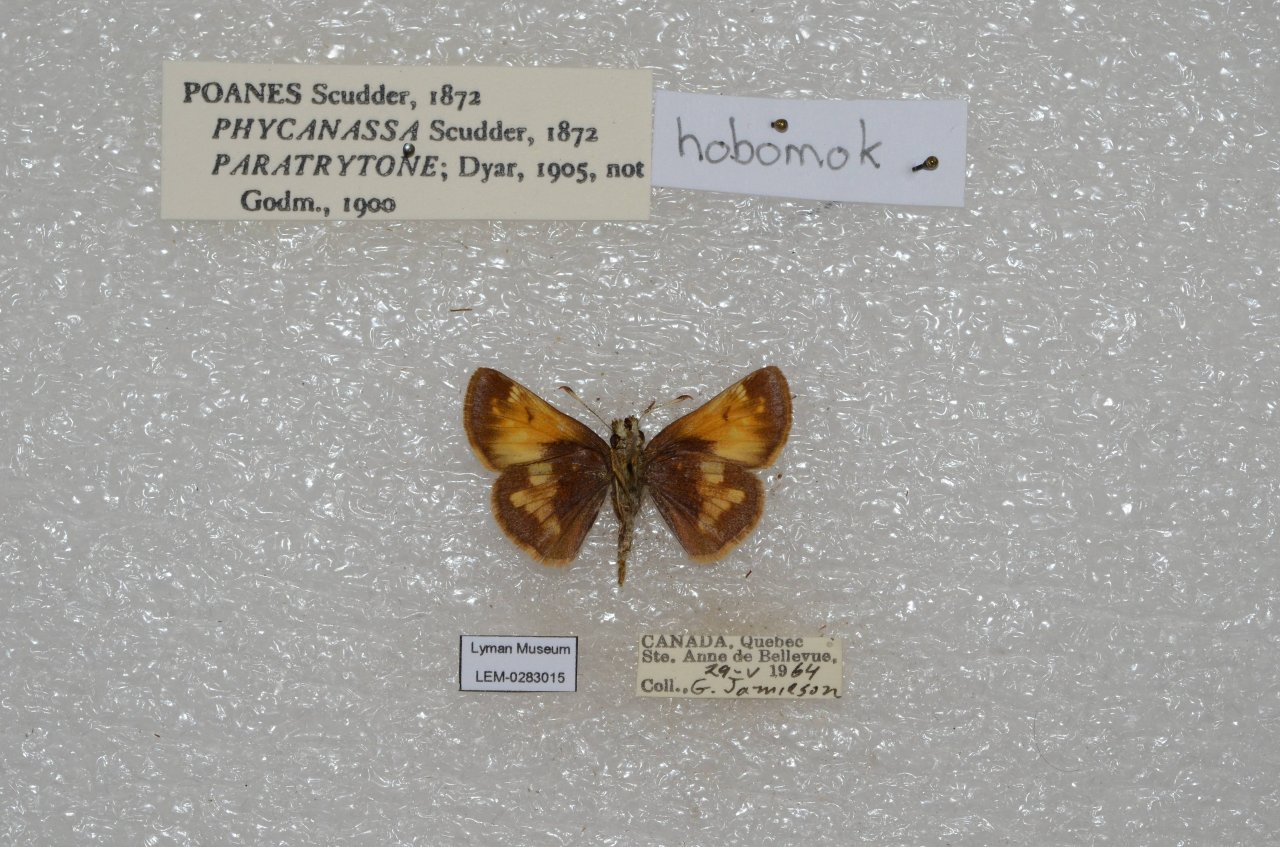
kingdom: Animalia
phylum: Arthropoda
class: Insecta
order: Lepidoptera
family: Hesperiidae
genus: Lon
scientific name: Lon hobomok
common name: Hobomok Skipper
